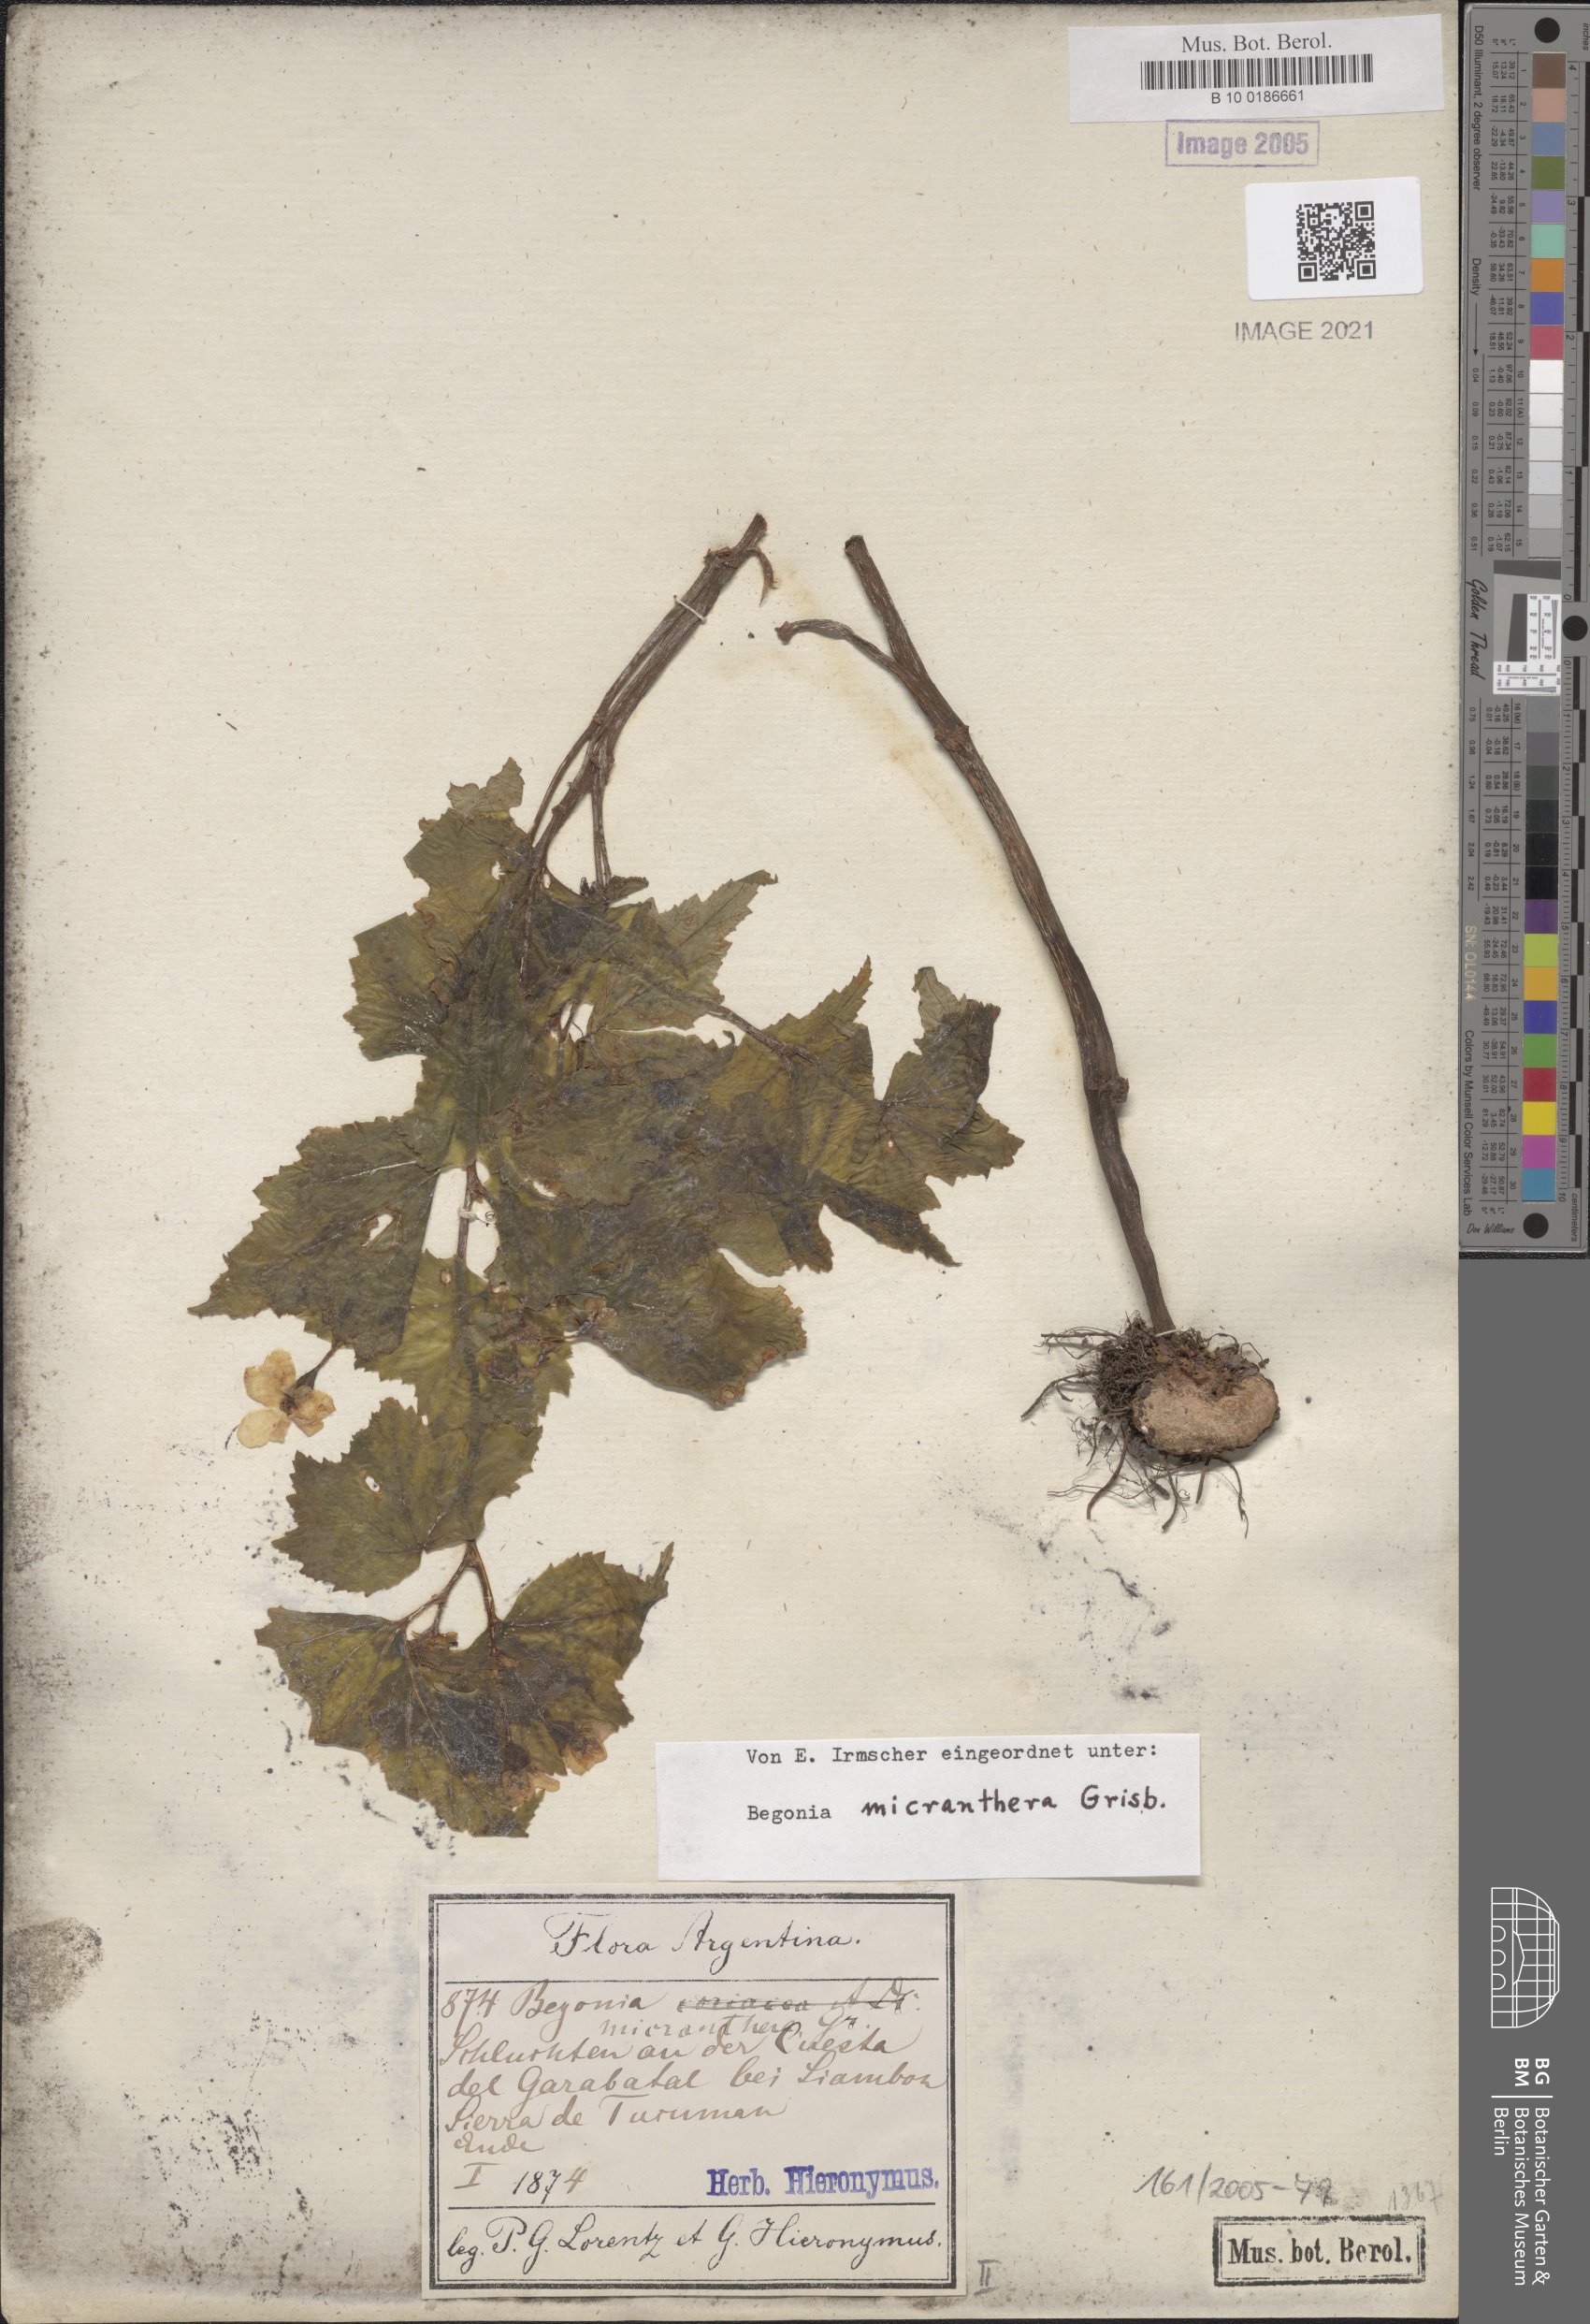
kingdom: Plantae
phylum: Tracheophyta
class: Magnoliopsida
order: Cucurbitales
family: Begoniaceae
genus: Begonia
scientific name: Begonia micranthera
